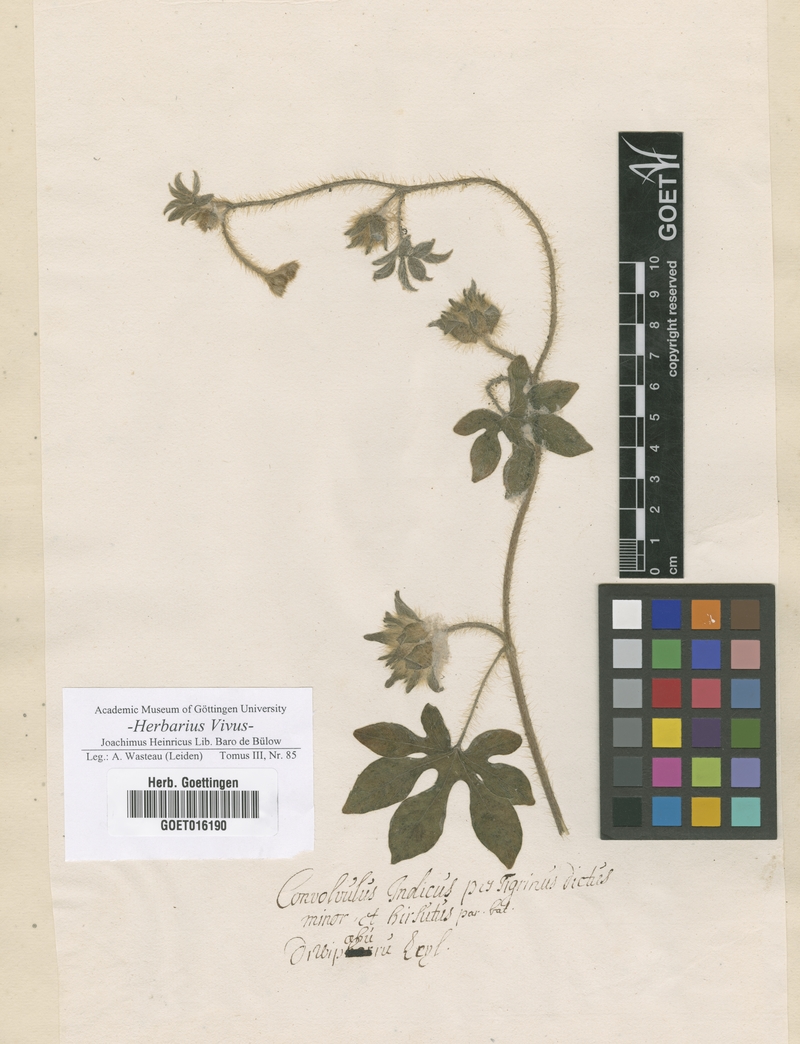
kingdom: Plantae
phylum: Tracheophyta
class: Magnoliopsida
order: Solanales
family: Convolvulaceae
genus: Ipomoea
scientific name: Ipomoea pes-tigridis
